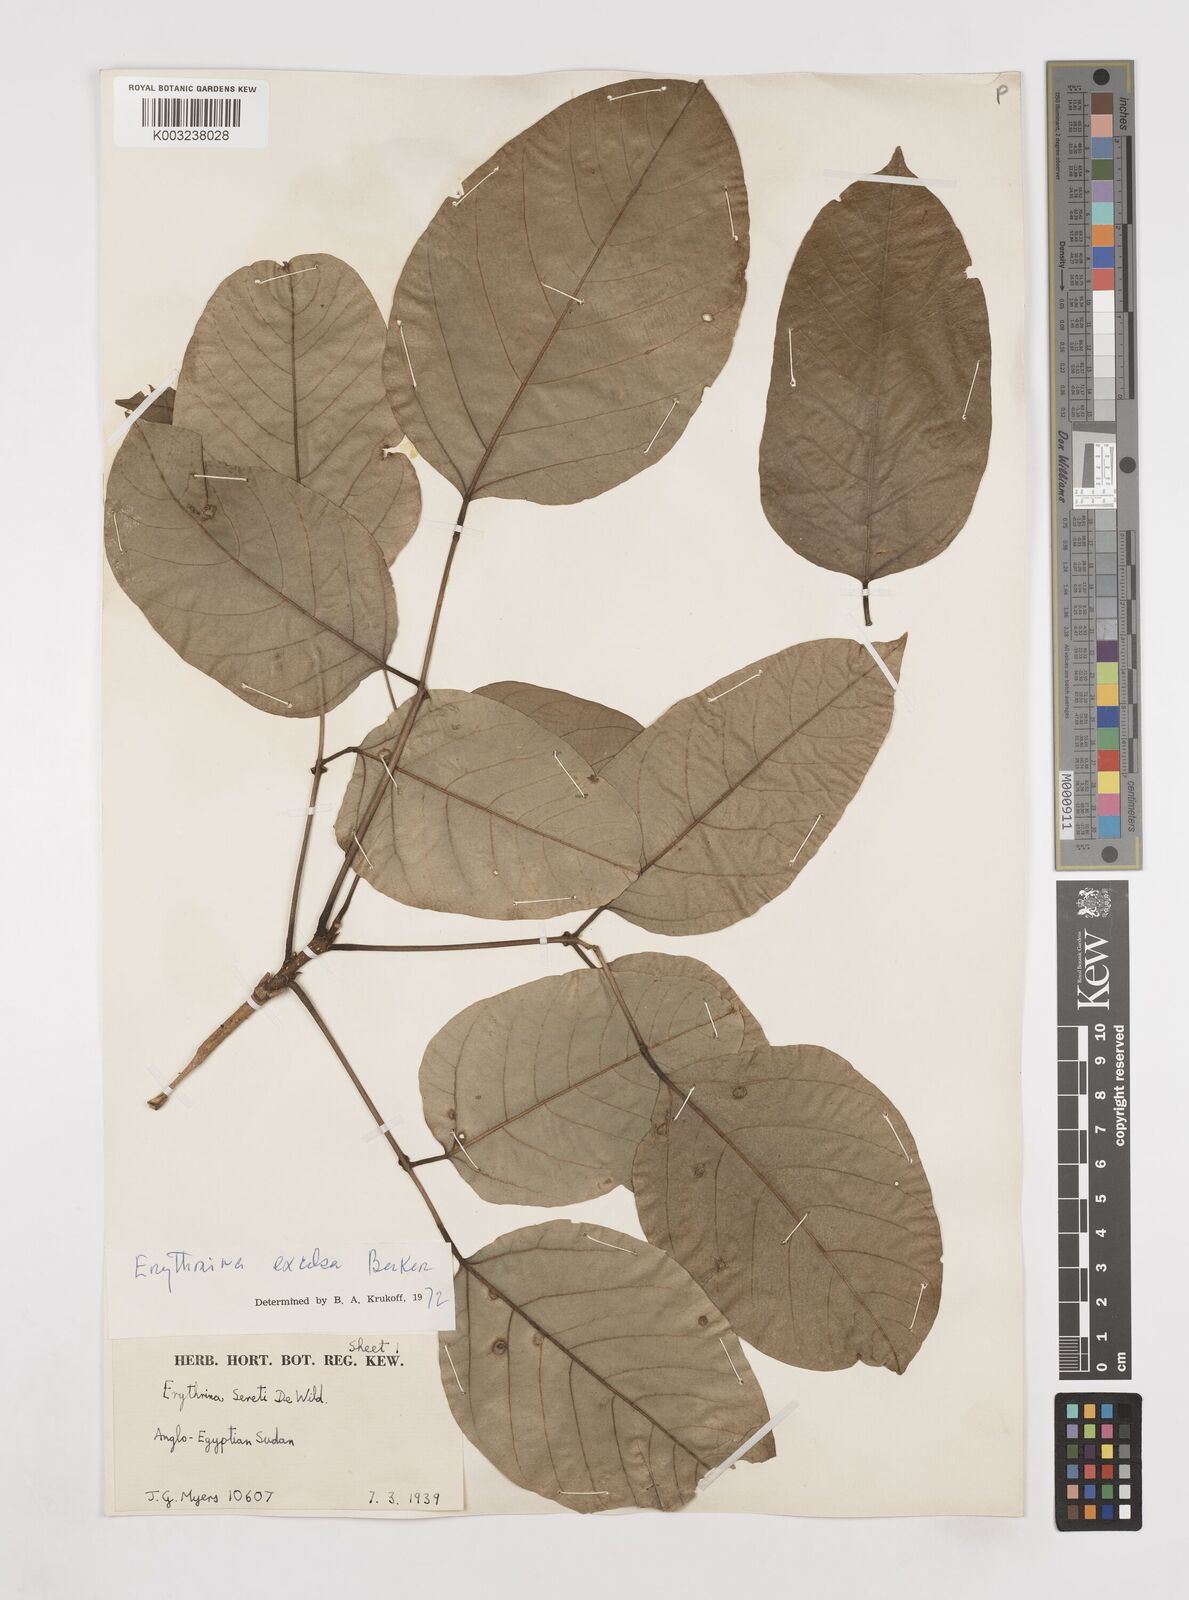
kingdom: Plantae
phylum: Tracheophyta
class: Magnoliopsida
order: Fabales
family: Fabaceae
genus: Erythrina
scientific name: Erythrina excelsa
